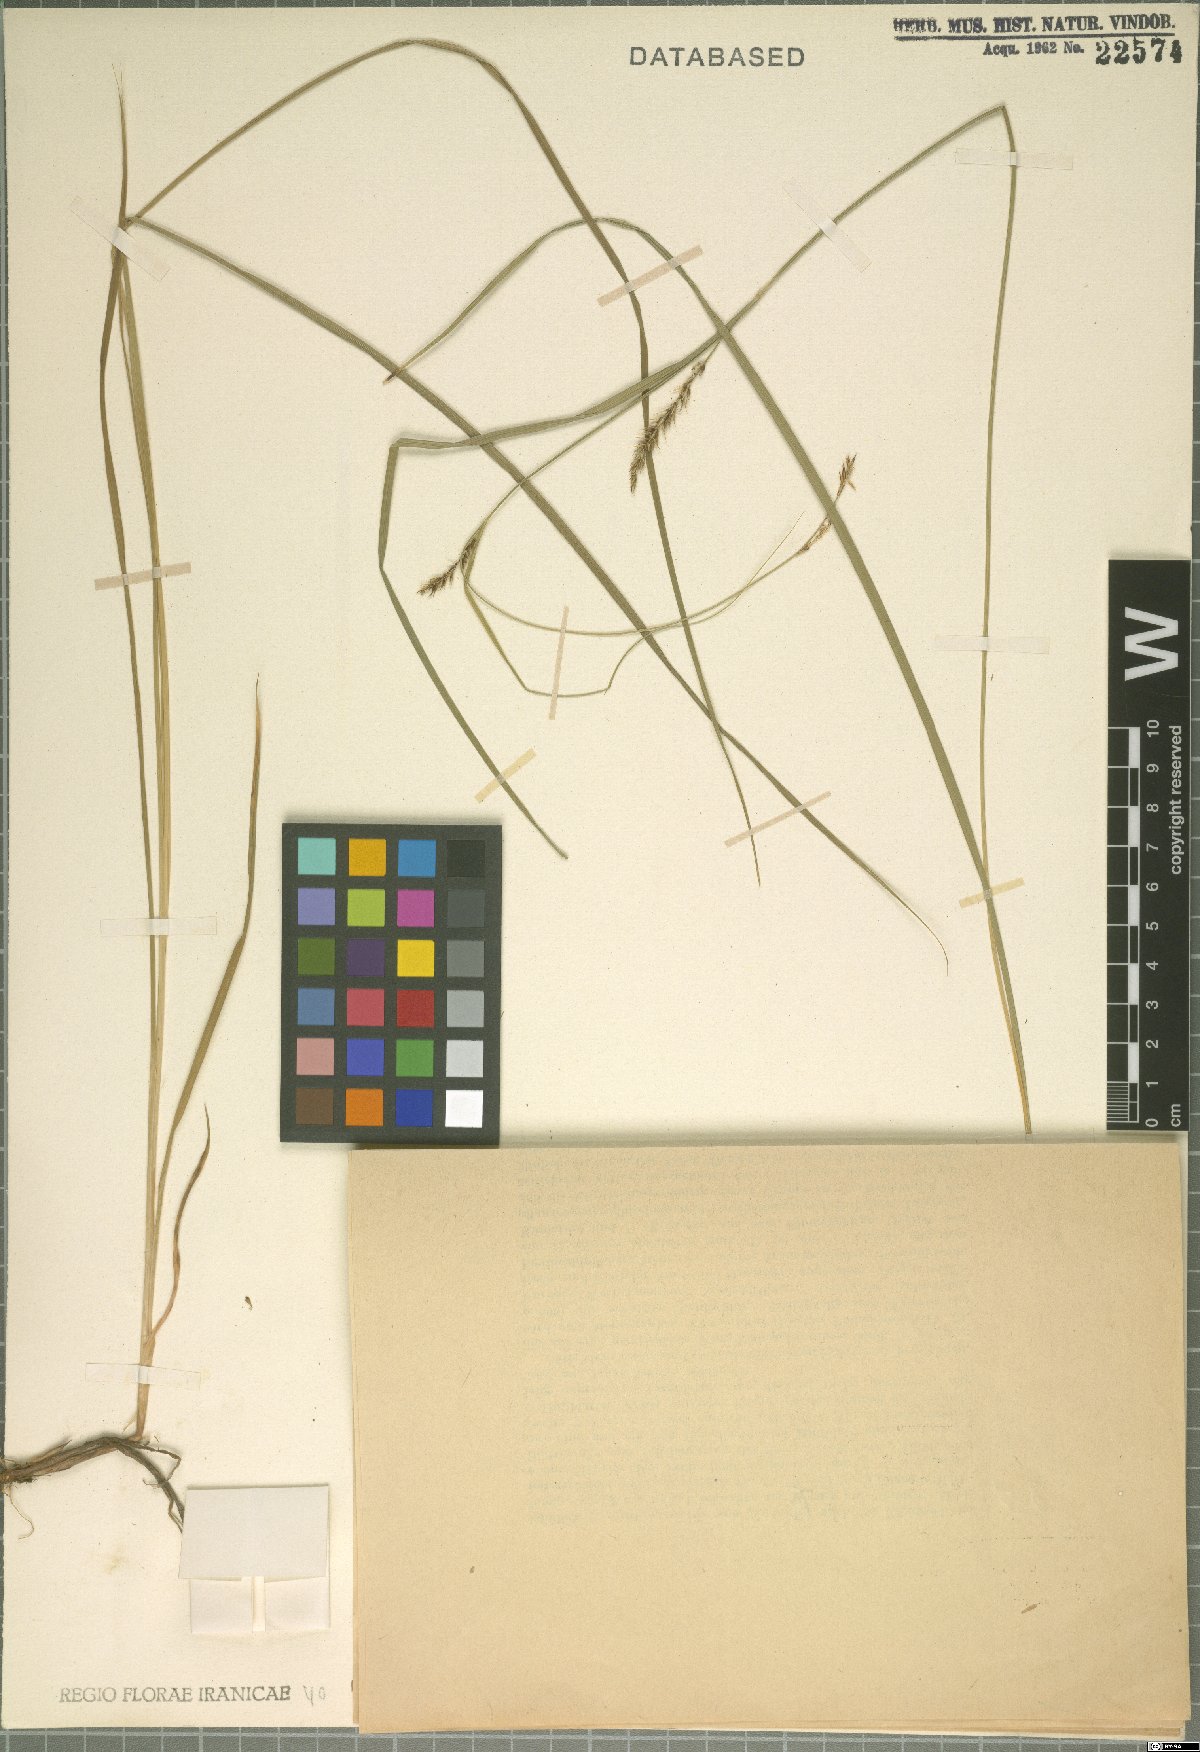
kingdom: Plantae
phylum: Tracheophyta
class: Liliopsida
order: Poales
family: Cyperaceae
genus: Carex
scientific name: Carex songorica
